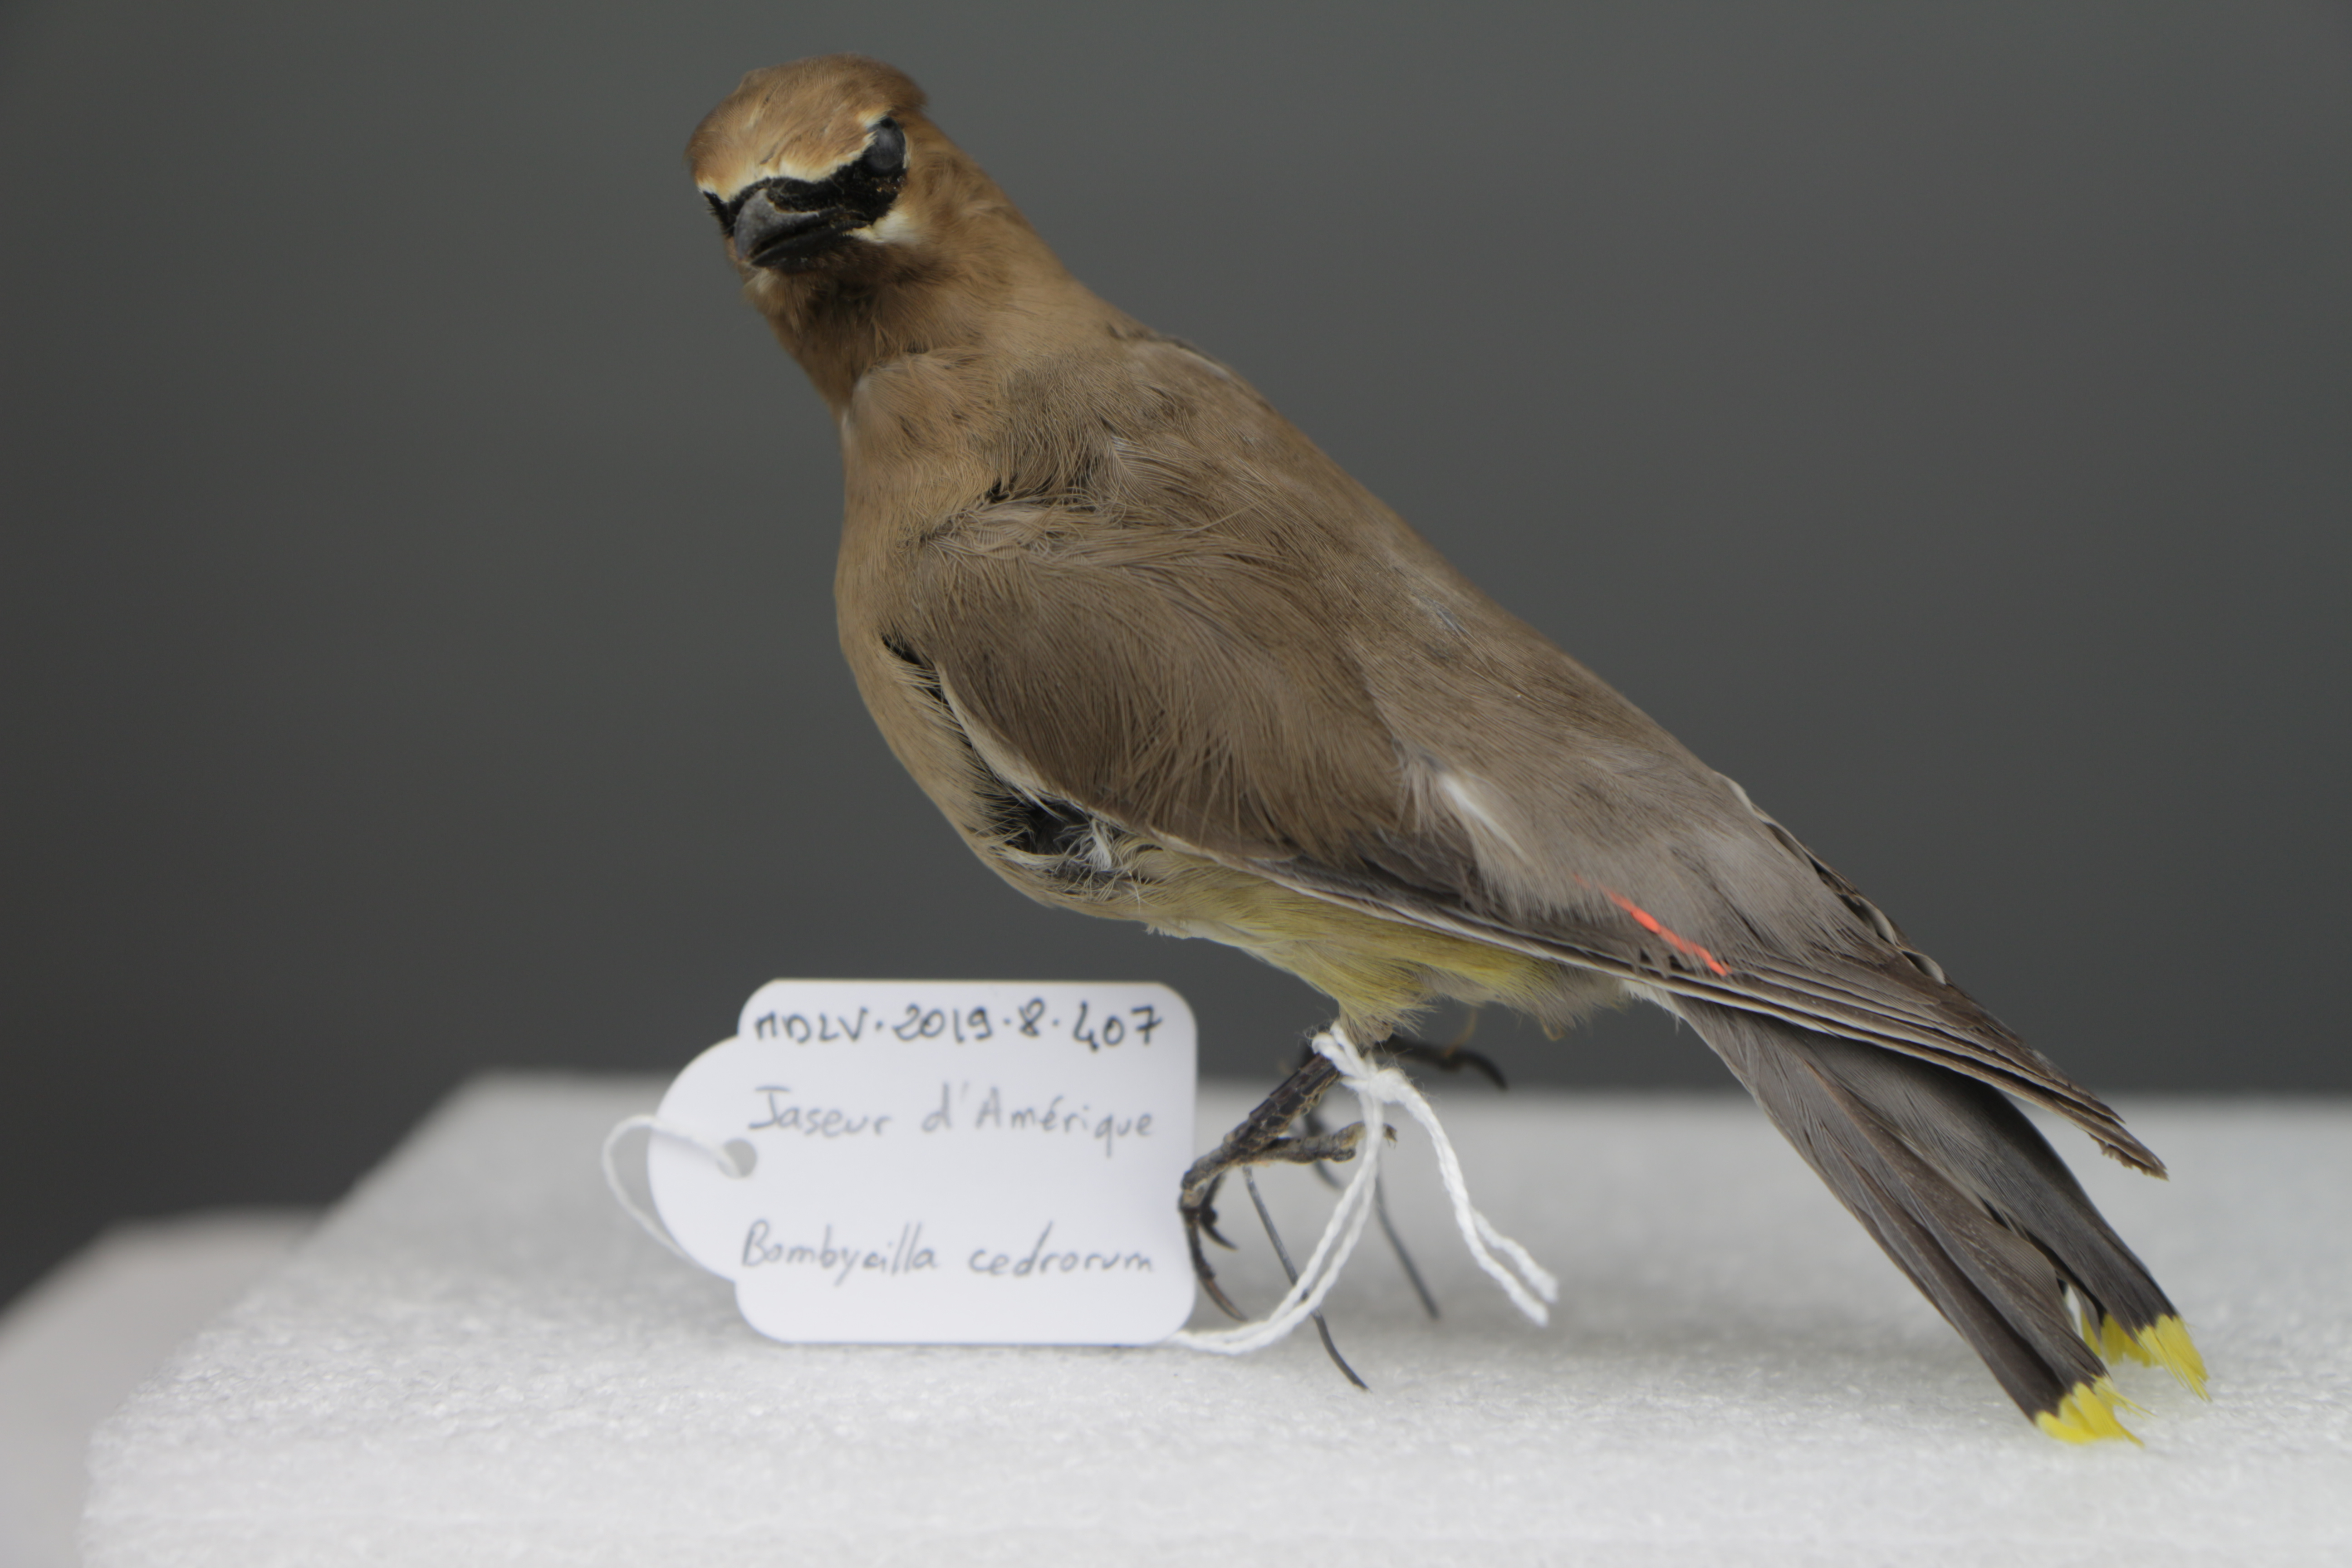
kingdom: Animalia
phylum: Chordata
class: Aves
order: Passeriformes
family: Bombycillidae
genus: Bombycilla
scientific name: Bombycilla cedrorum
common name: Cedar waxwing
